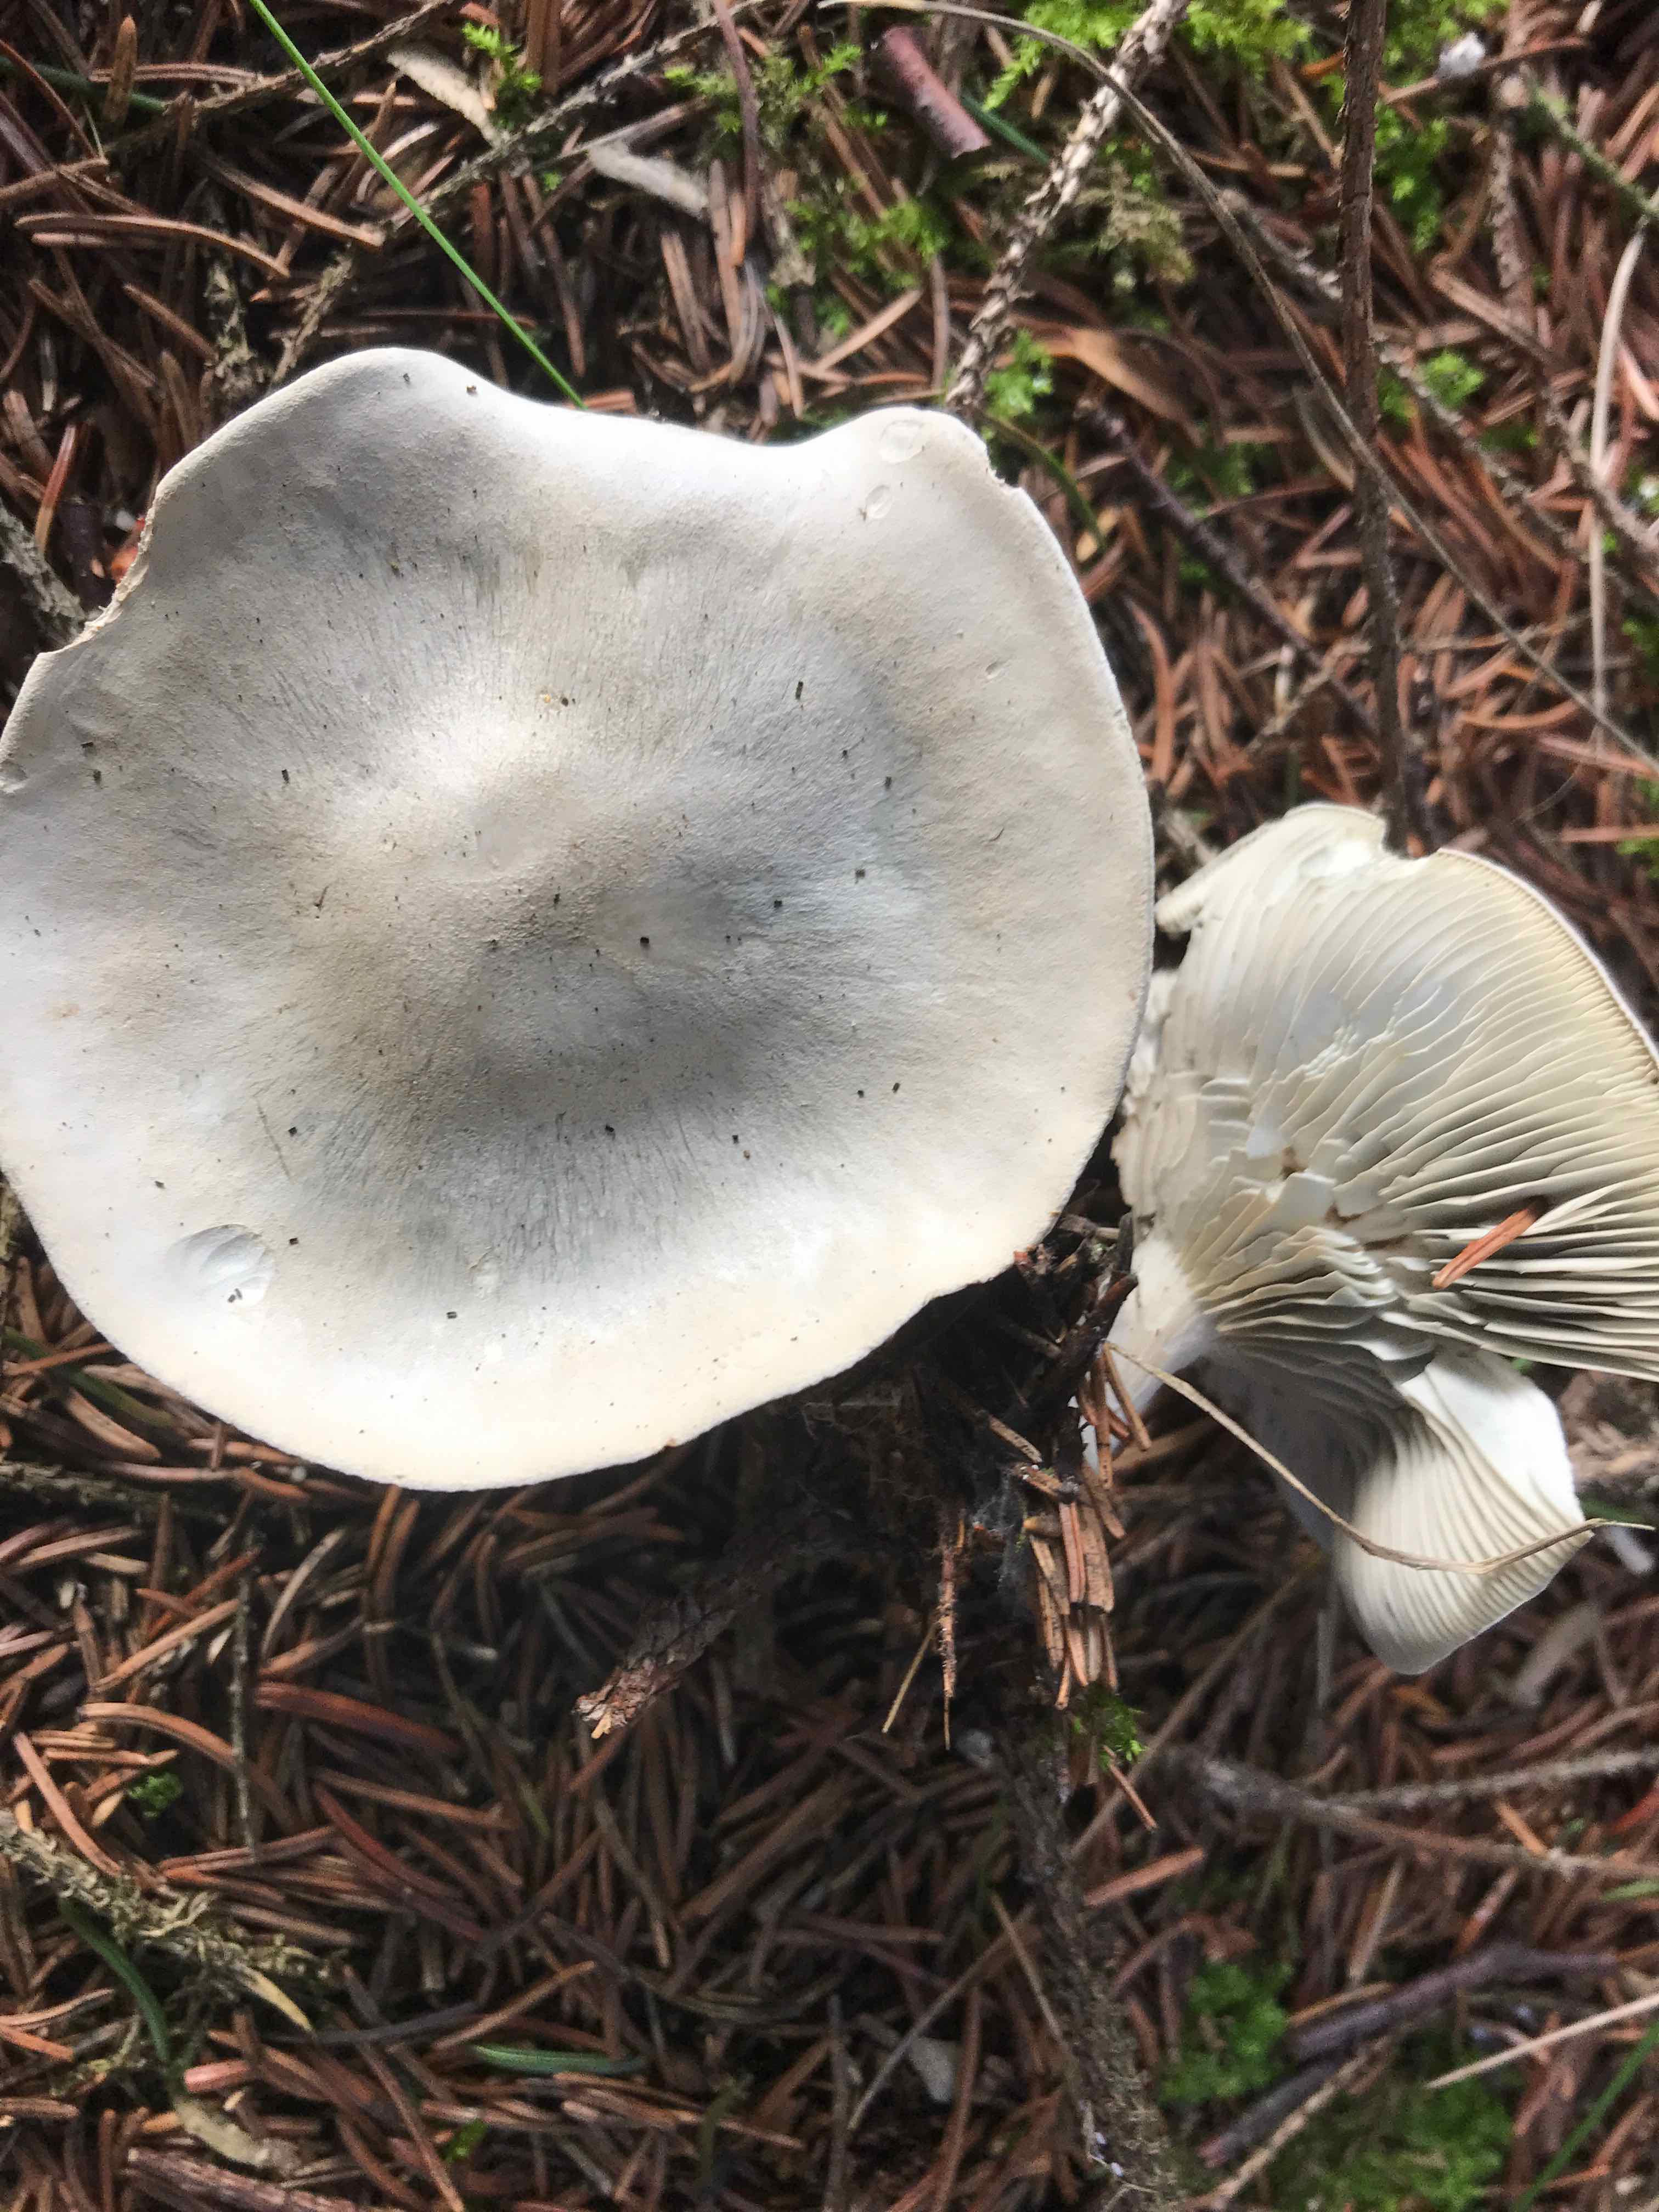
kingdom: Fungi
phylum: Basidiomycota
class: Agaricomycetes
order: Agaricales
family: Tricholomataceae
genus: Clitocybe
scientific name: Clitocybe odora
